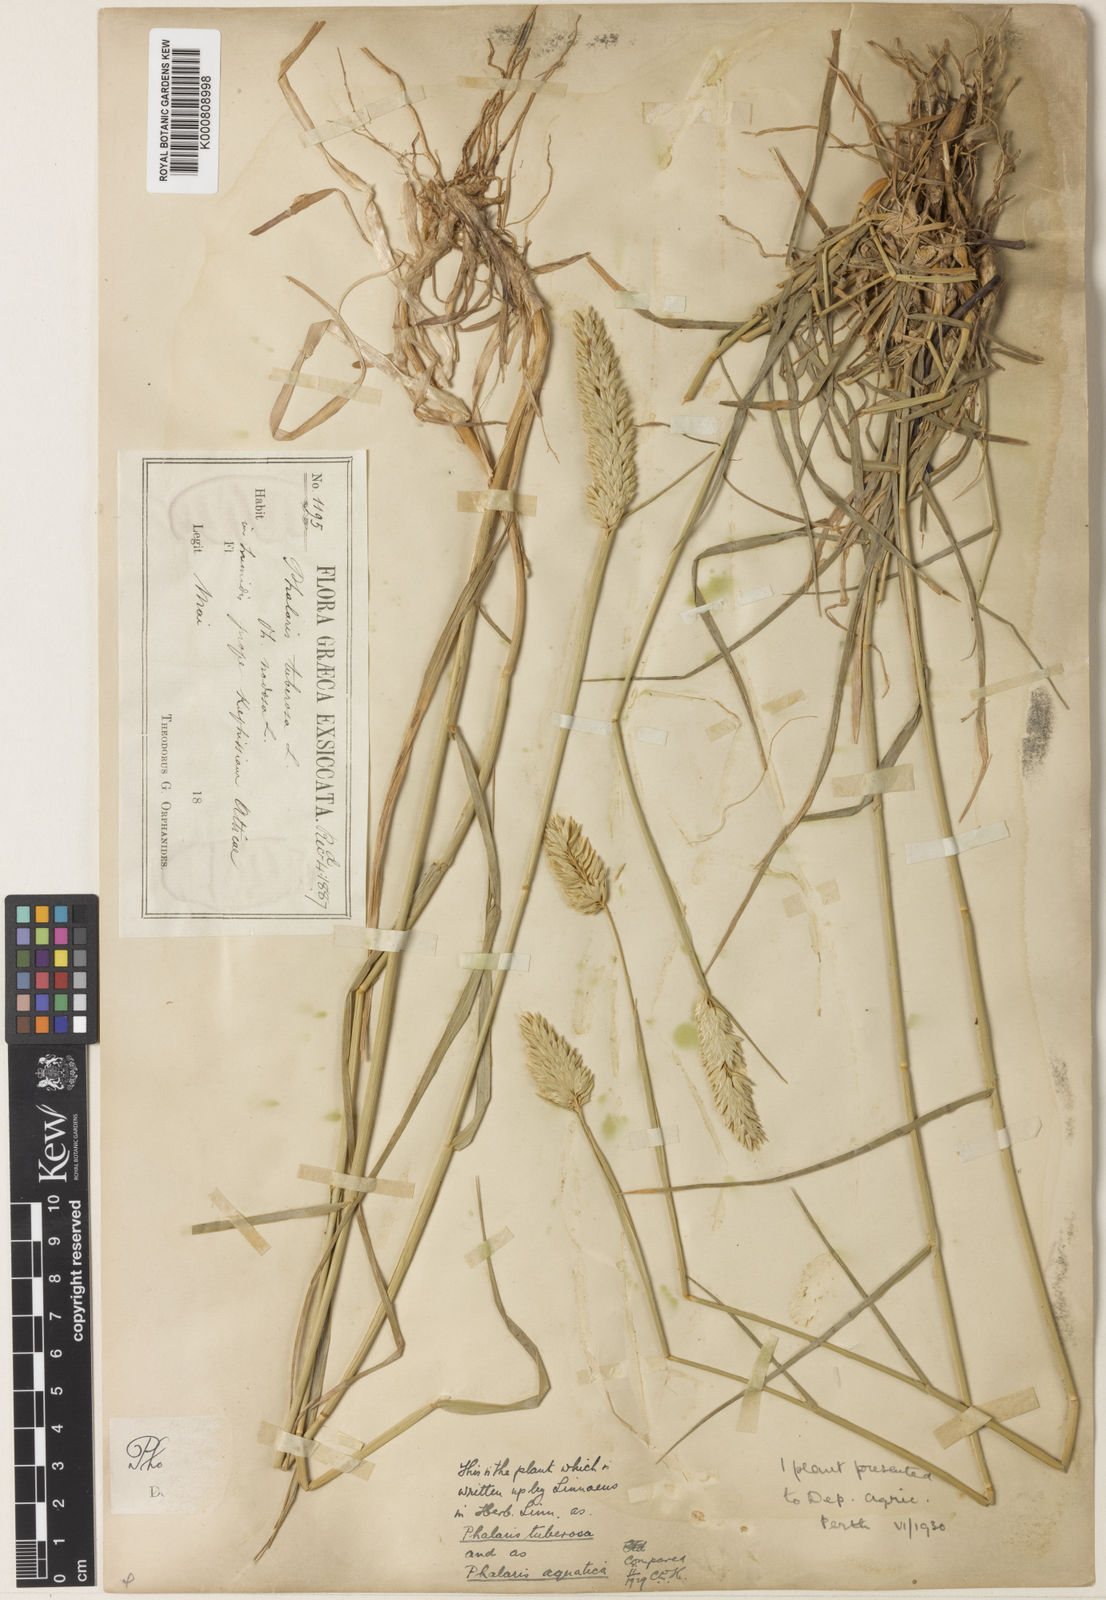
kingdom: Plantae
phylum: Tracheophyta
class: Liliopsida
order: Poales
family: Poaceae
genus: Phalaris
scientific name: Phalaris aquatica
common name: Bulbous canary-grass
